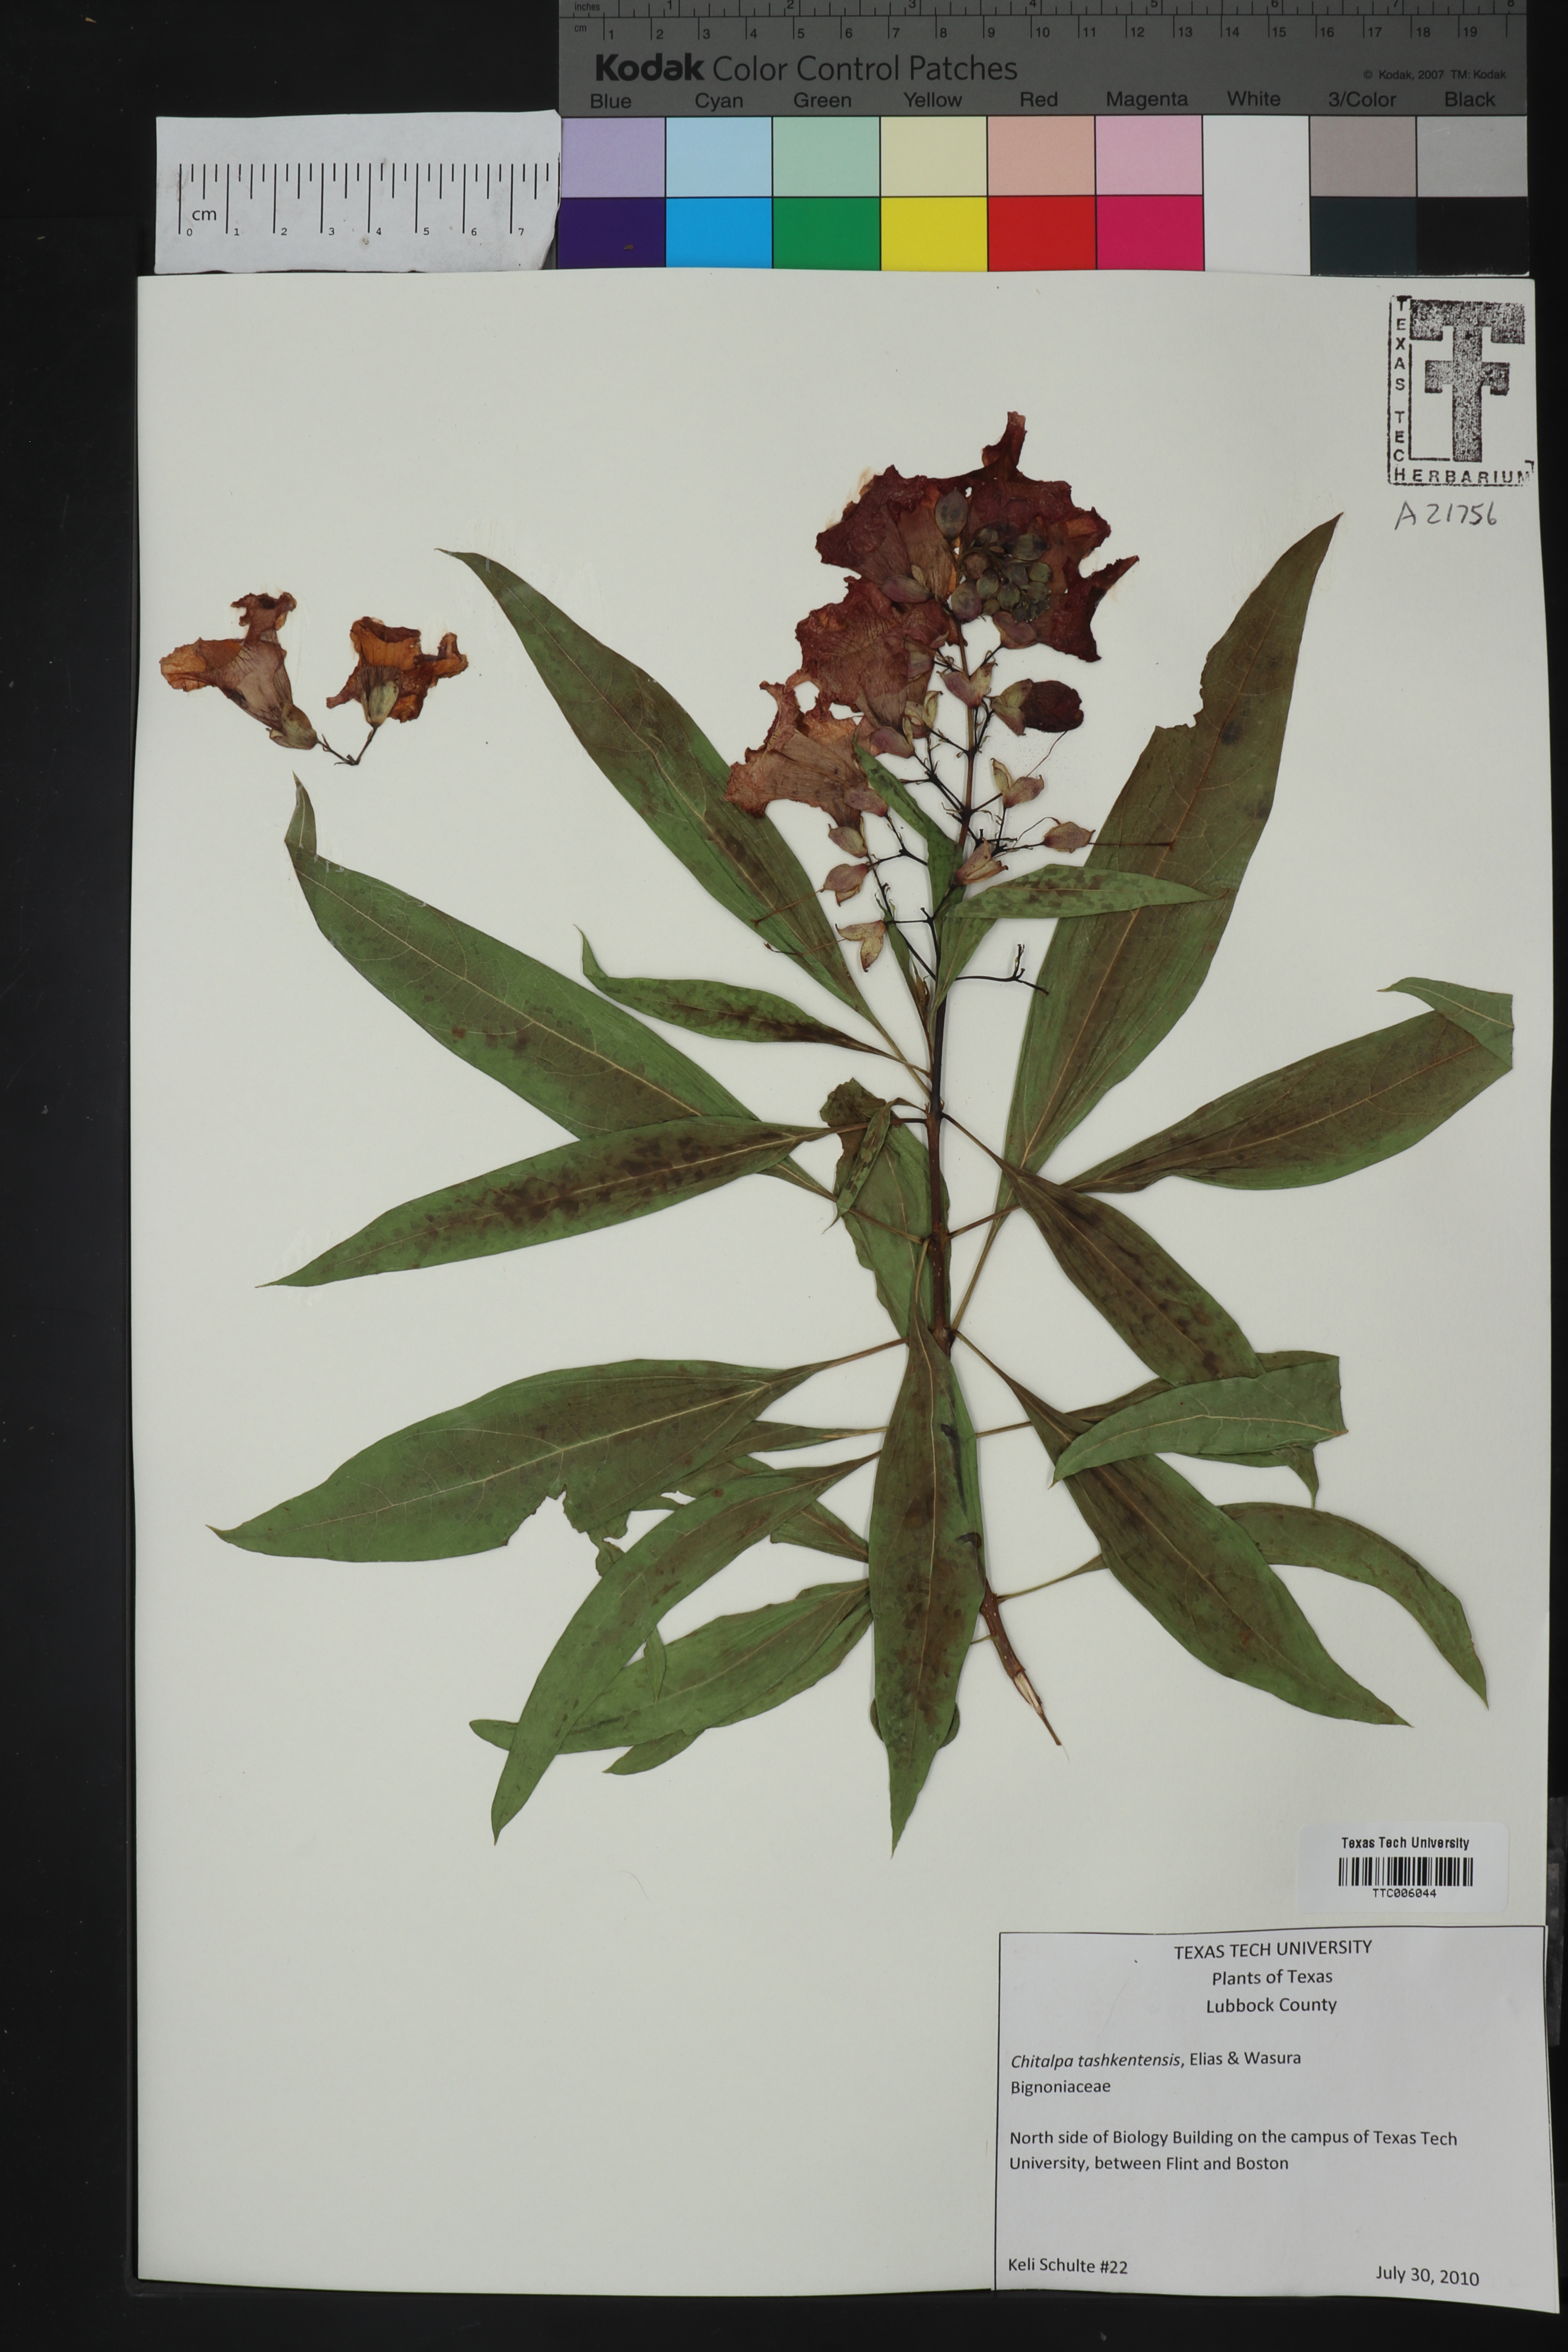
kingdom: Plantae
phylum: Tracheophyta
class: Magnoliopsida
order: Lamiales
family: Bignoniaceae
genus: Chitalpa
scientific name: Chitalpa tashkentensis
